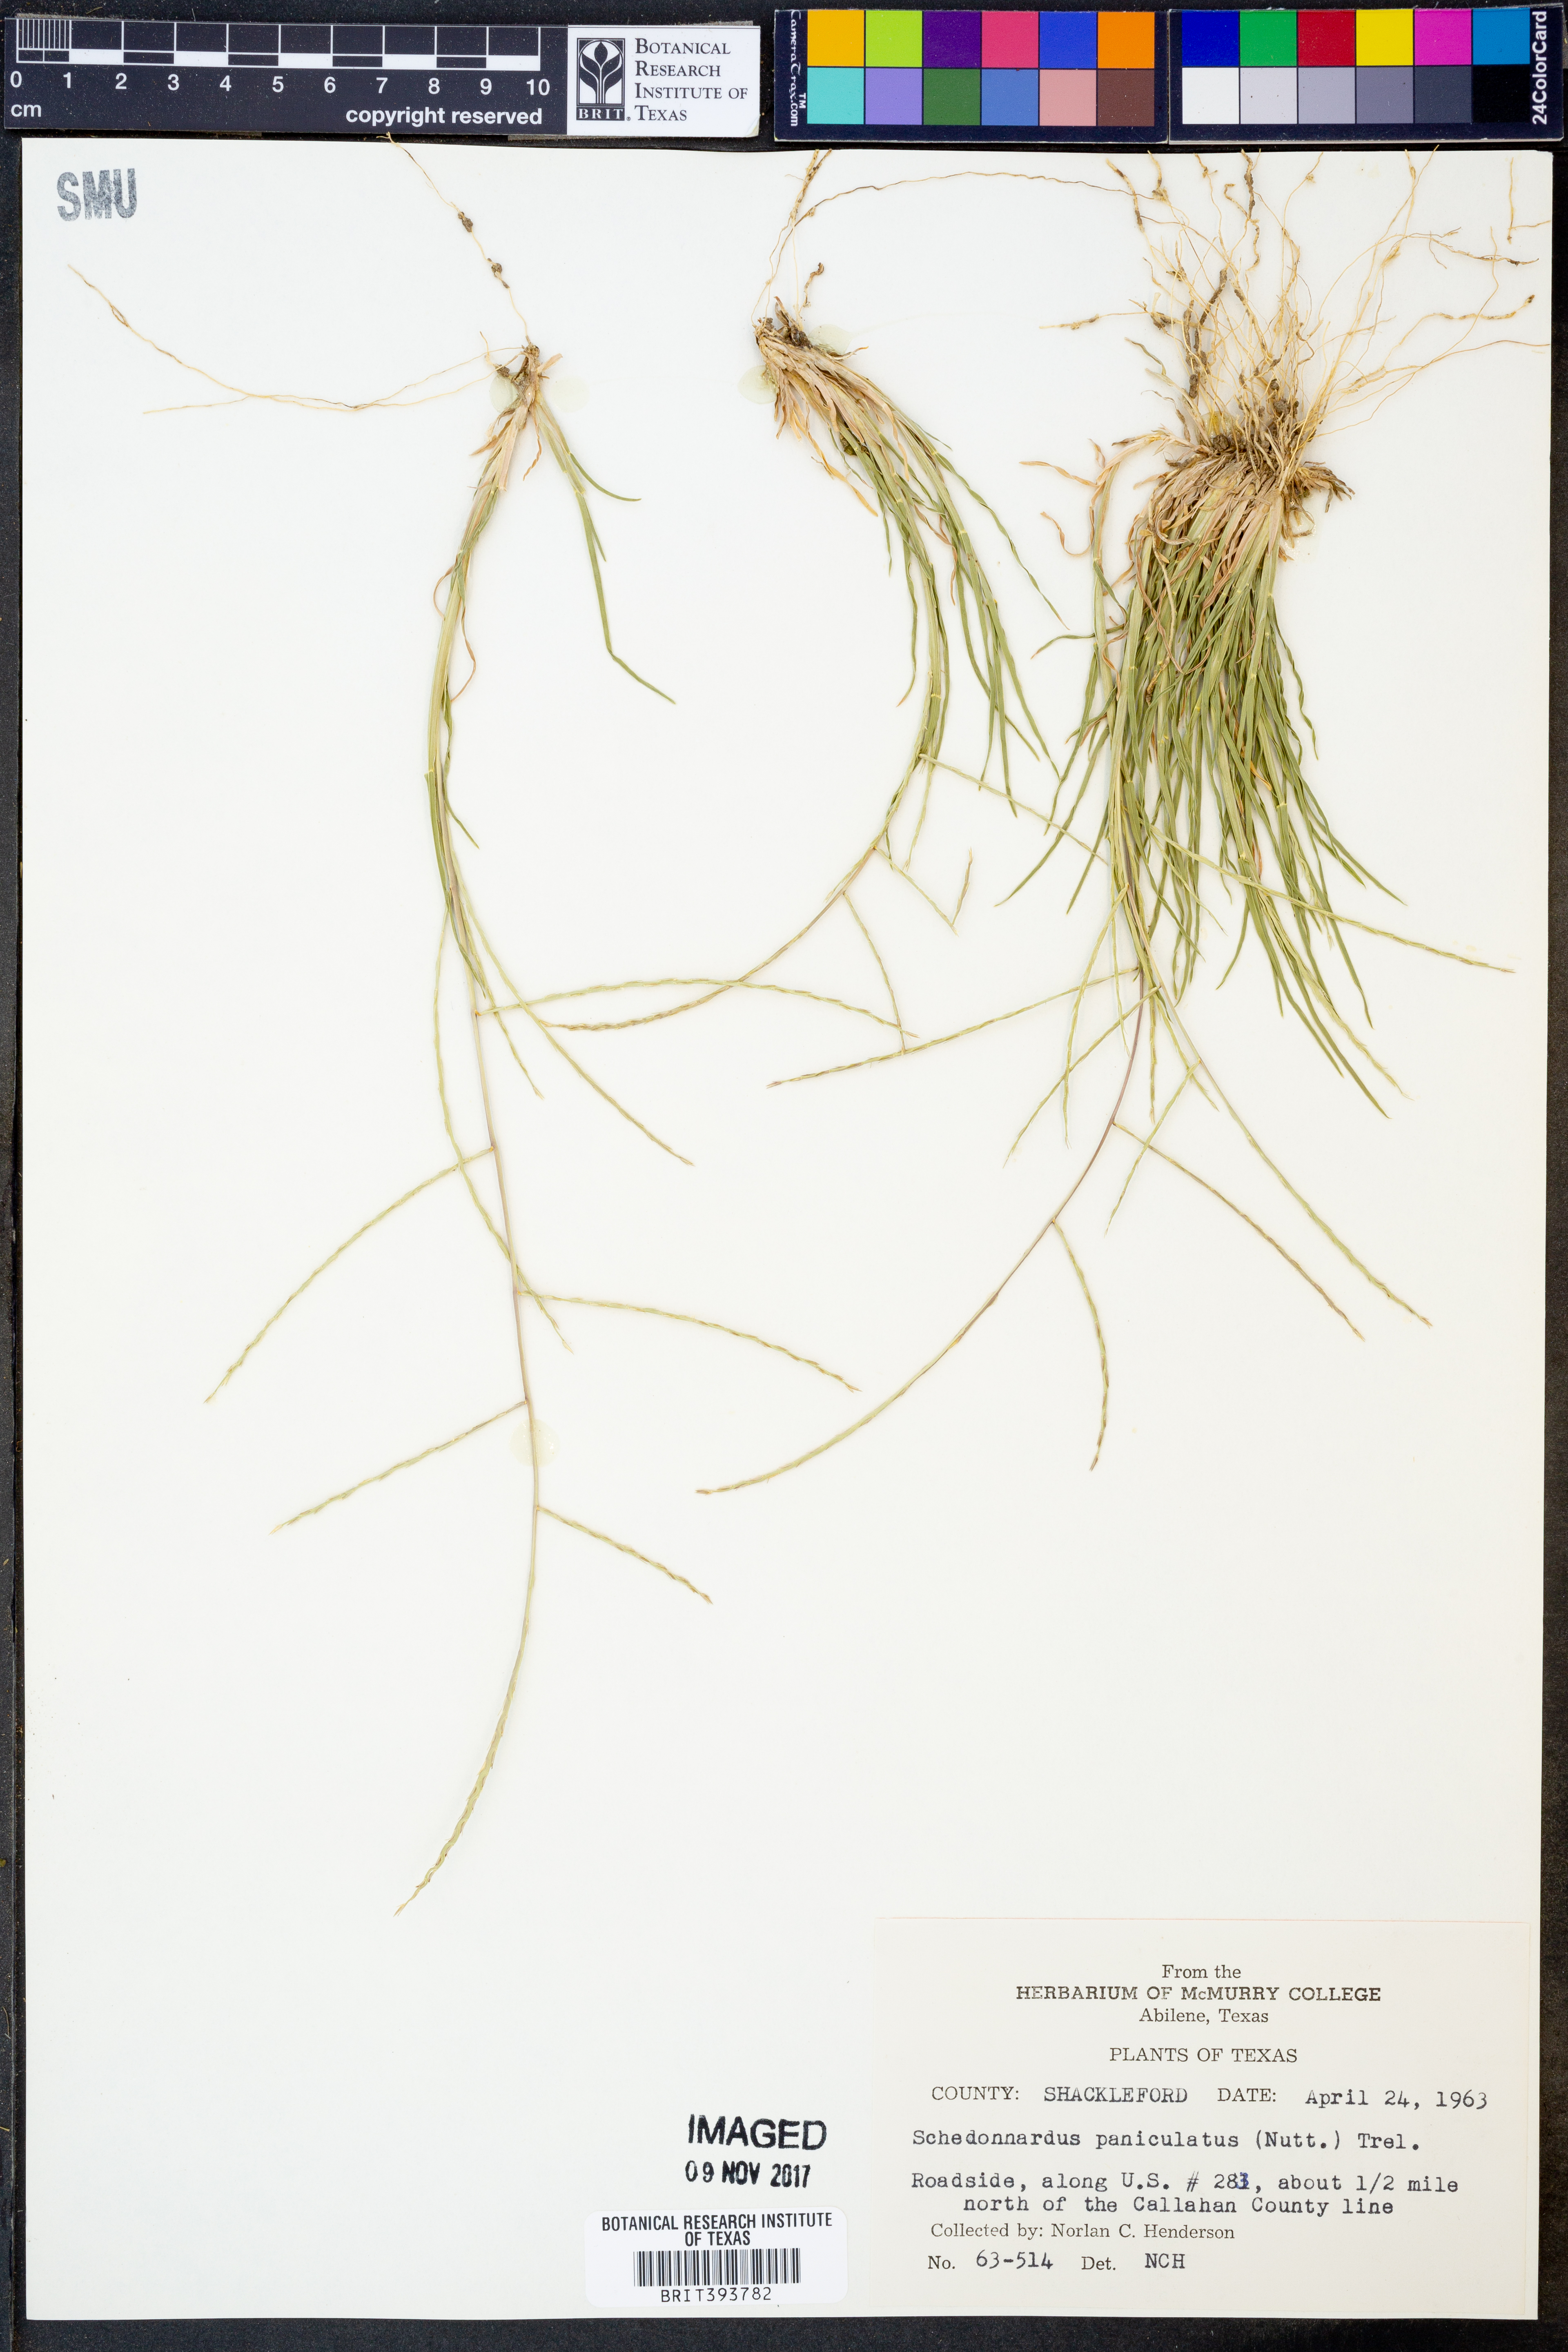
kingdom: Plantae
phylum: Tracheophyta
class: Liliopsida
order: Poales
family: Poaceae
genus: Muhlenbergia
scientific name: Muhlenbergia paniculata
